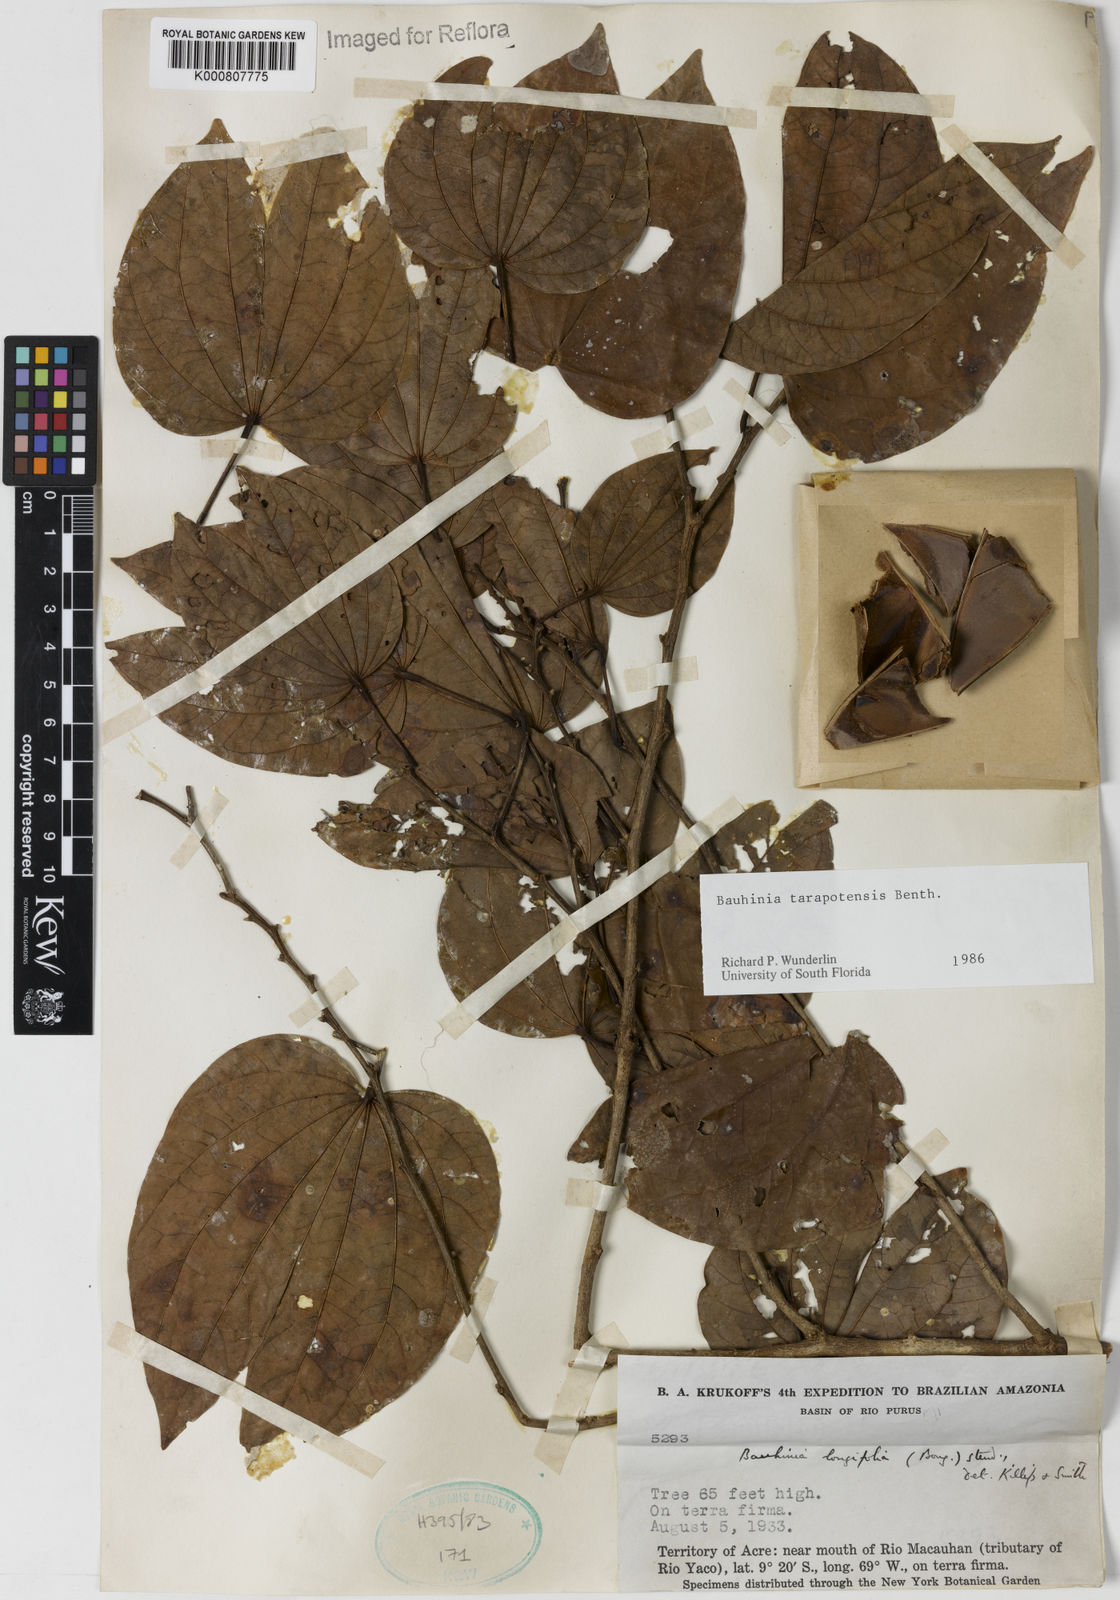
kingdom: Plantae
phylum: Tracheophyta
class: Magnoliopsida
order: Fabales
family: Fabaceae
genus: Bauhinia
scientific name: Bauhinia tarapotensis
